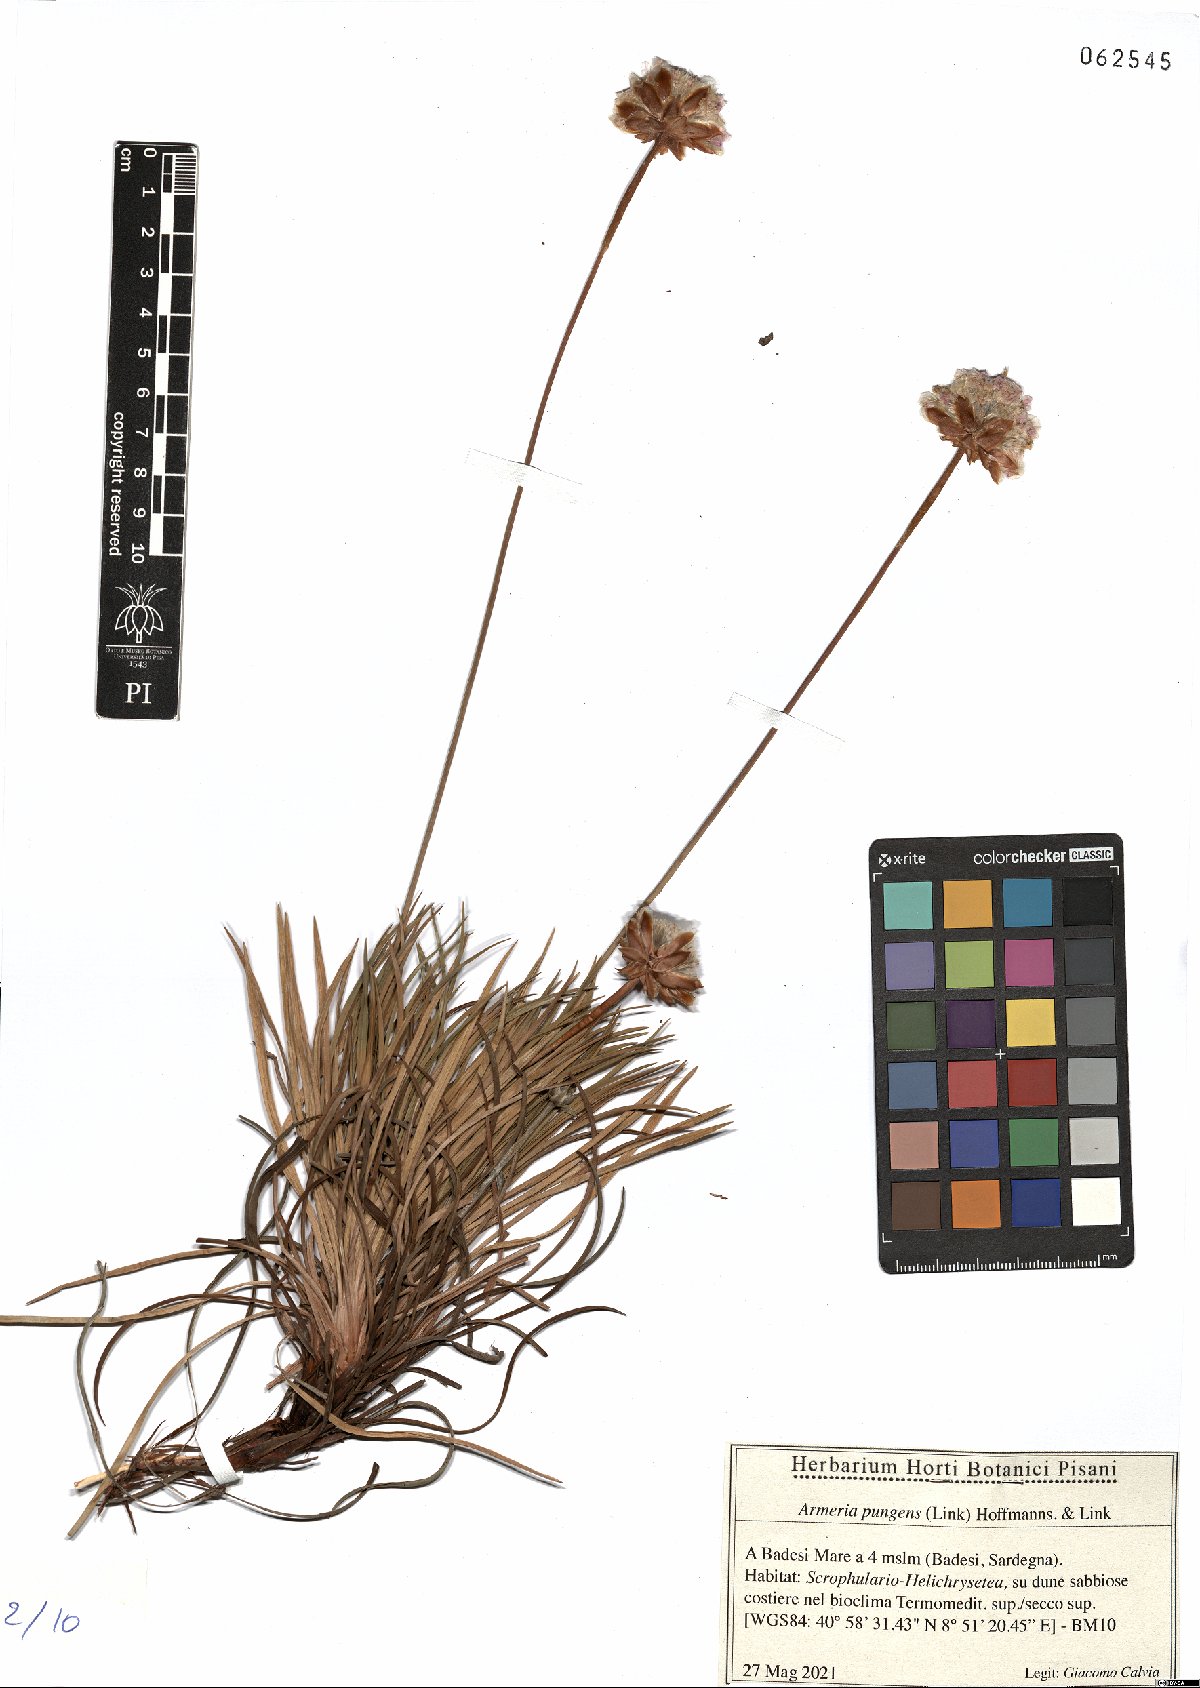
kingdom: Plantae
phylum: Tracheophyta
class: Magnoliopsida
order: Caryophyllales
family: Plumbaginaceae
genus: Armeria
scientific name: Armeria pungens
